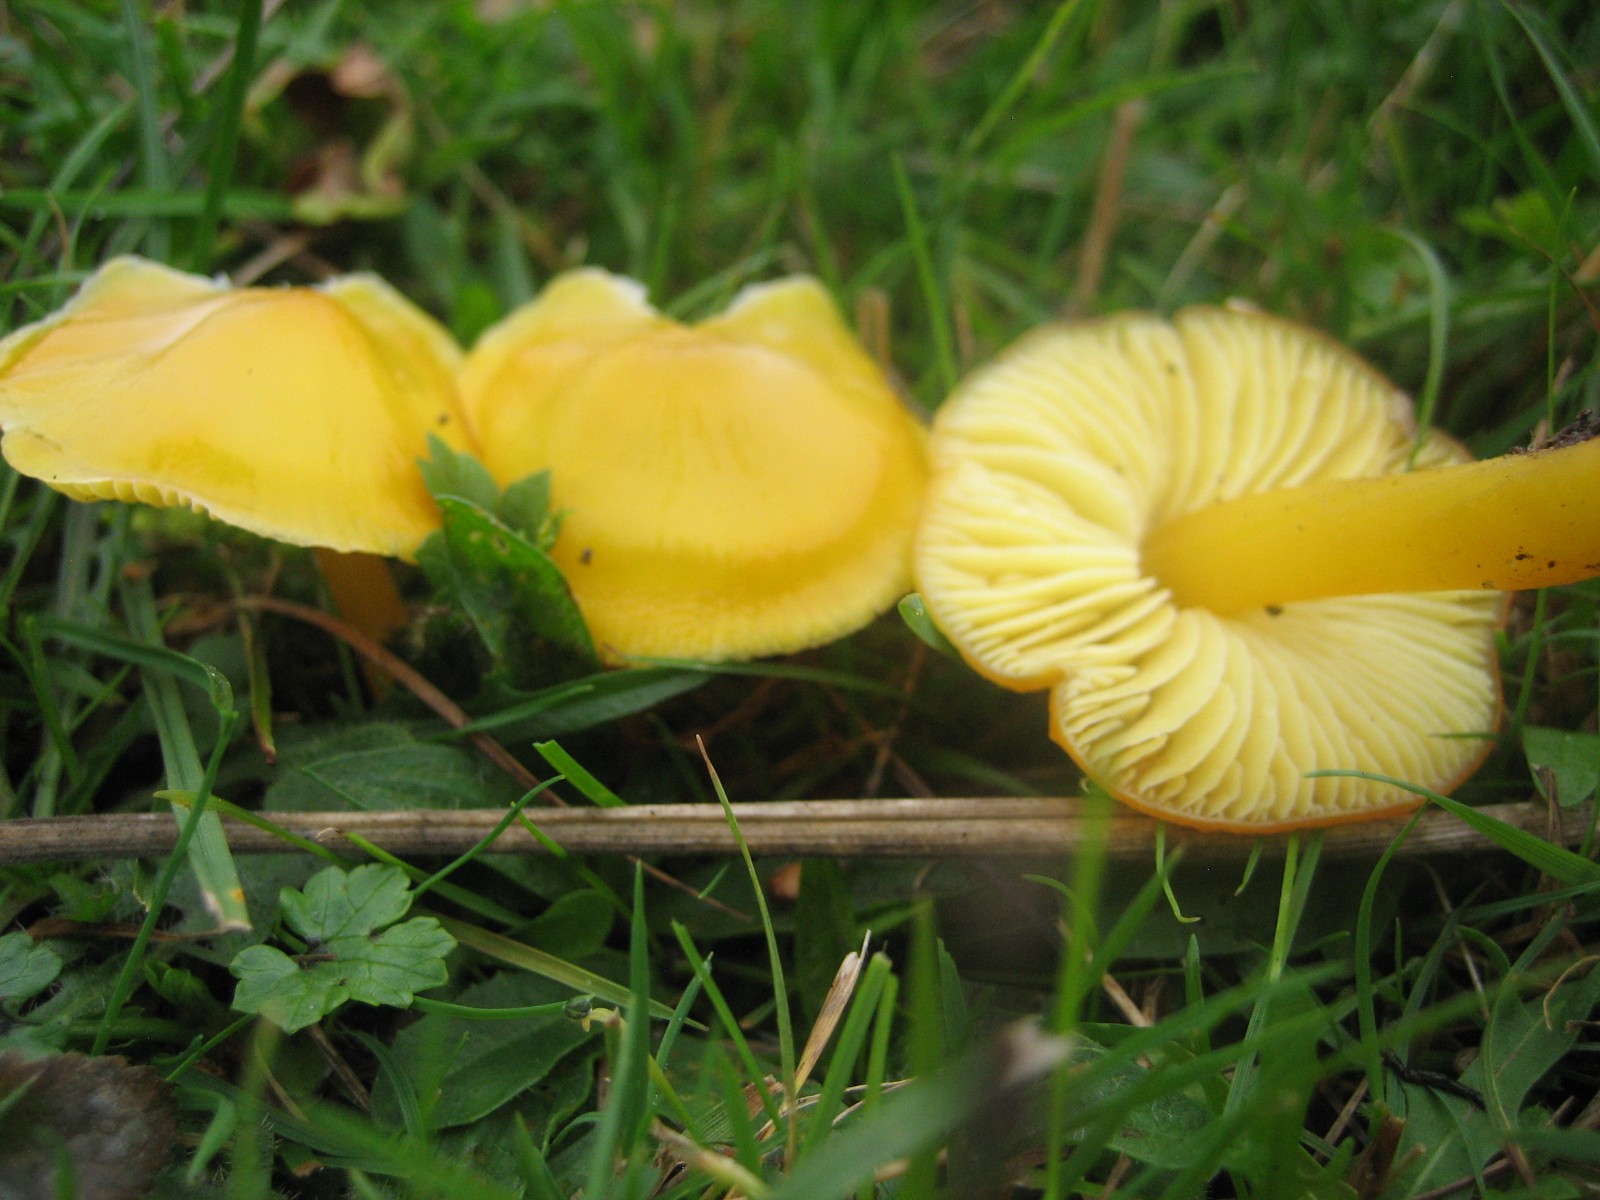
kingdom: Fungi
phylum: Basidiomycota
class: Agaricomycetes
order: Agaricales
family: Hygrophoraceae
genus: Hygrocybe
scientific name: Hygrocybe chlorophana
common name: gul vokshat
